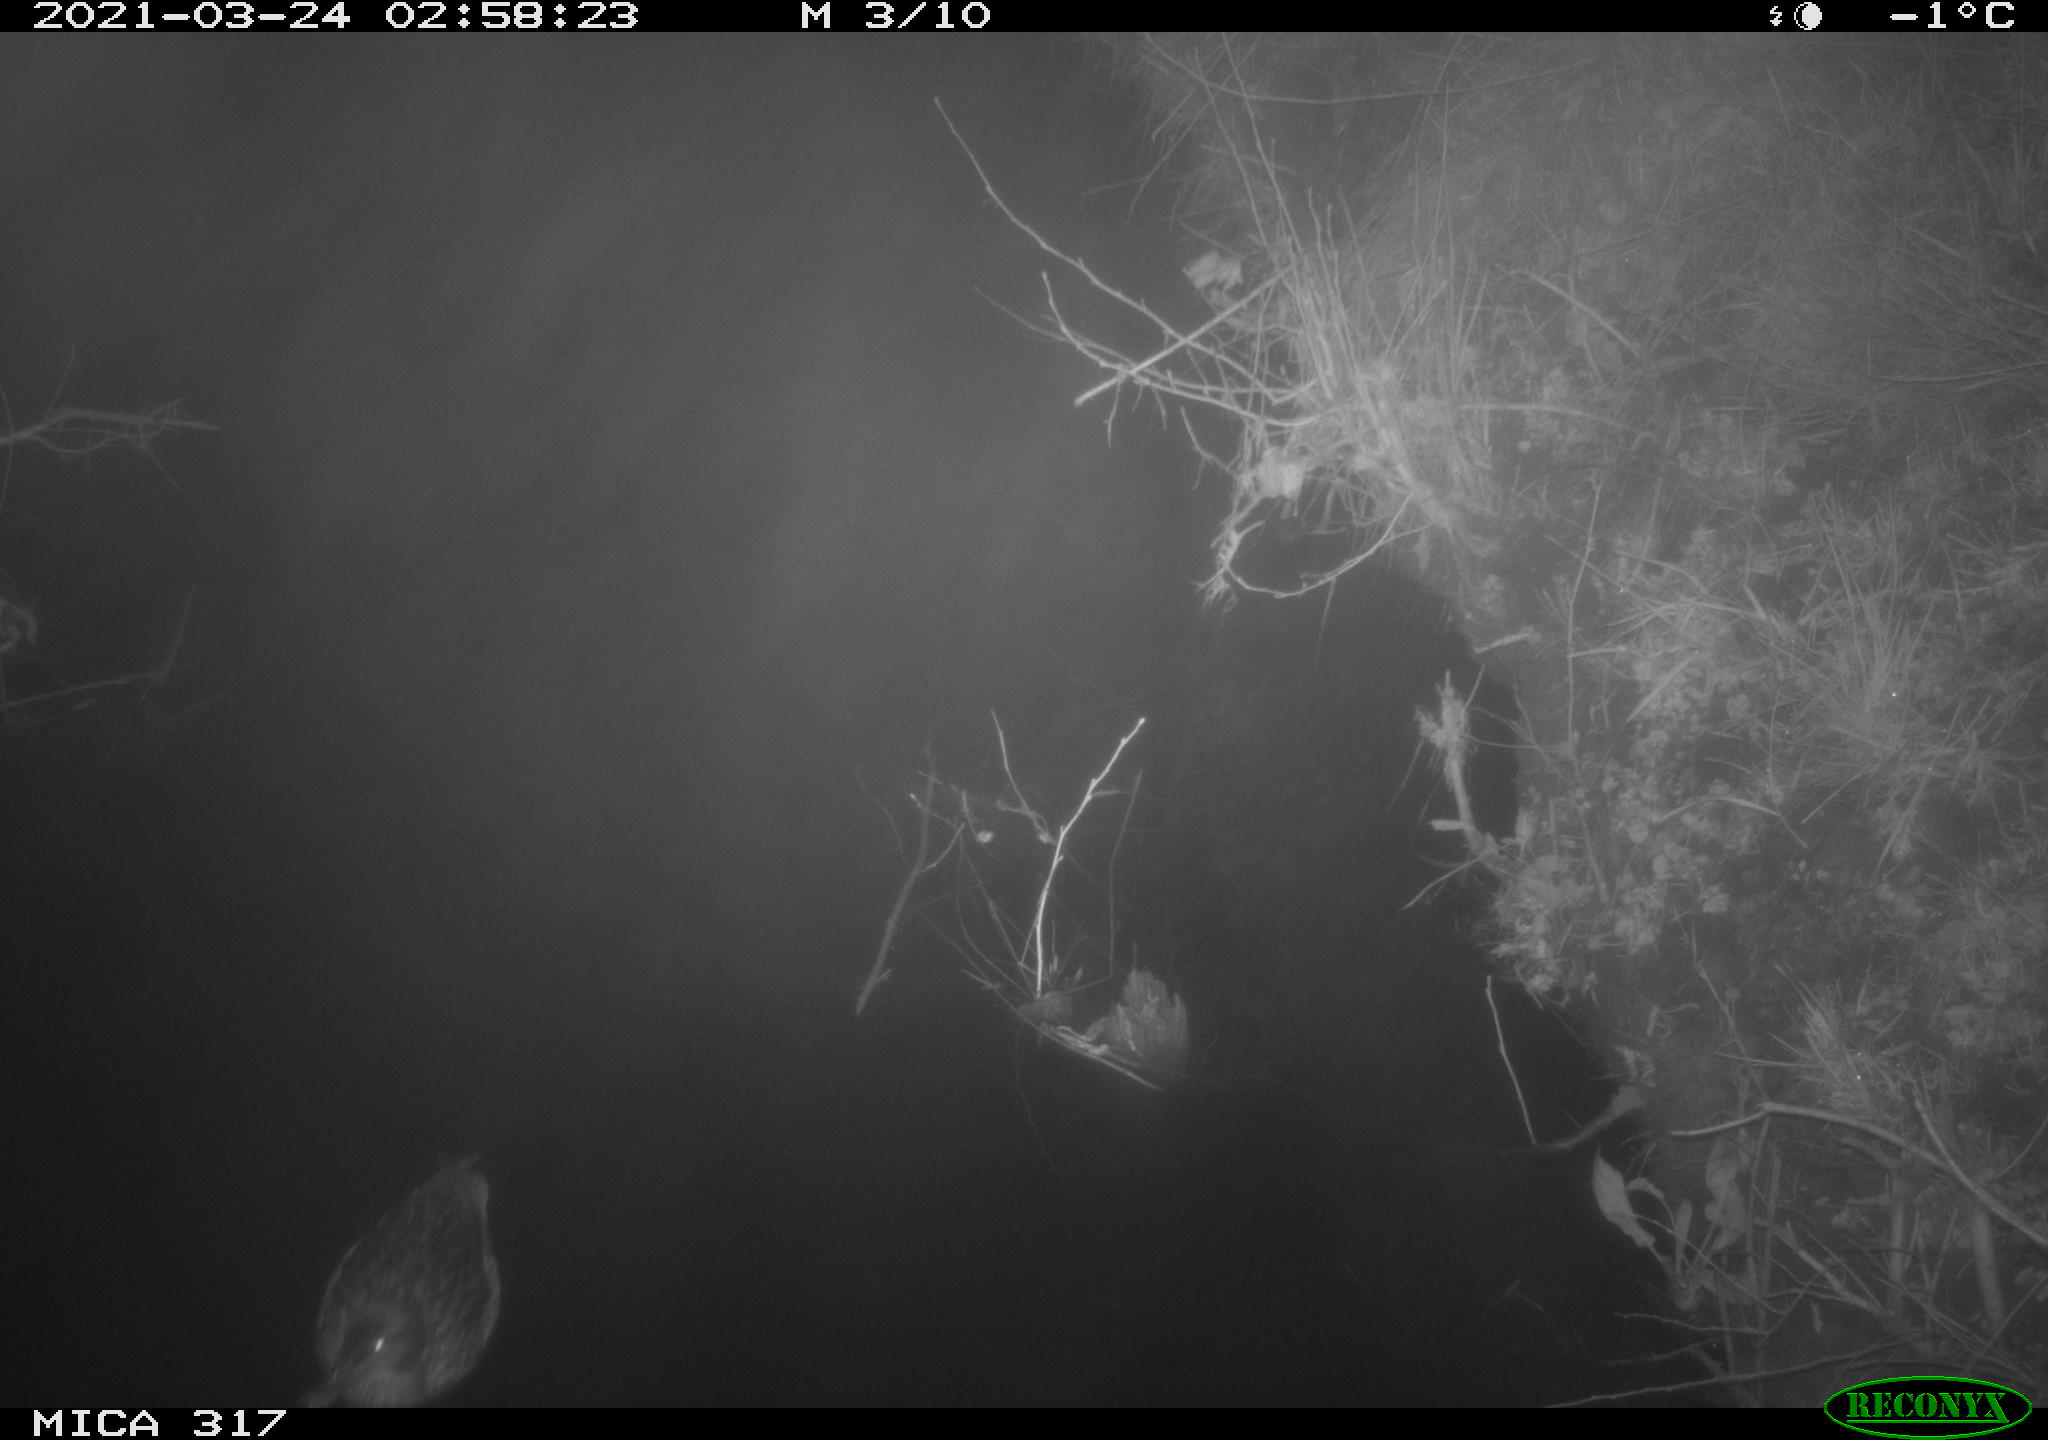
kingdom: Animalia
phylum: Chordata
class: Aves
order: Anseriformes
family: Anatidae
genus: Anas
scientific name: Anas platyrhynchos
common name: Mallard
